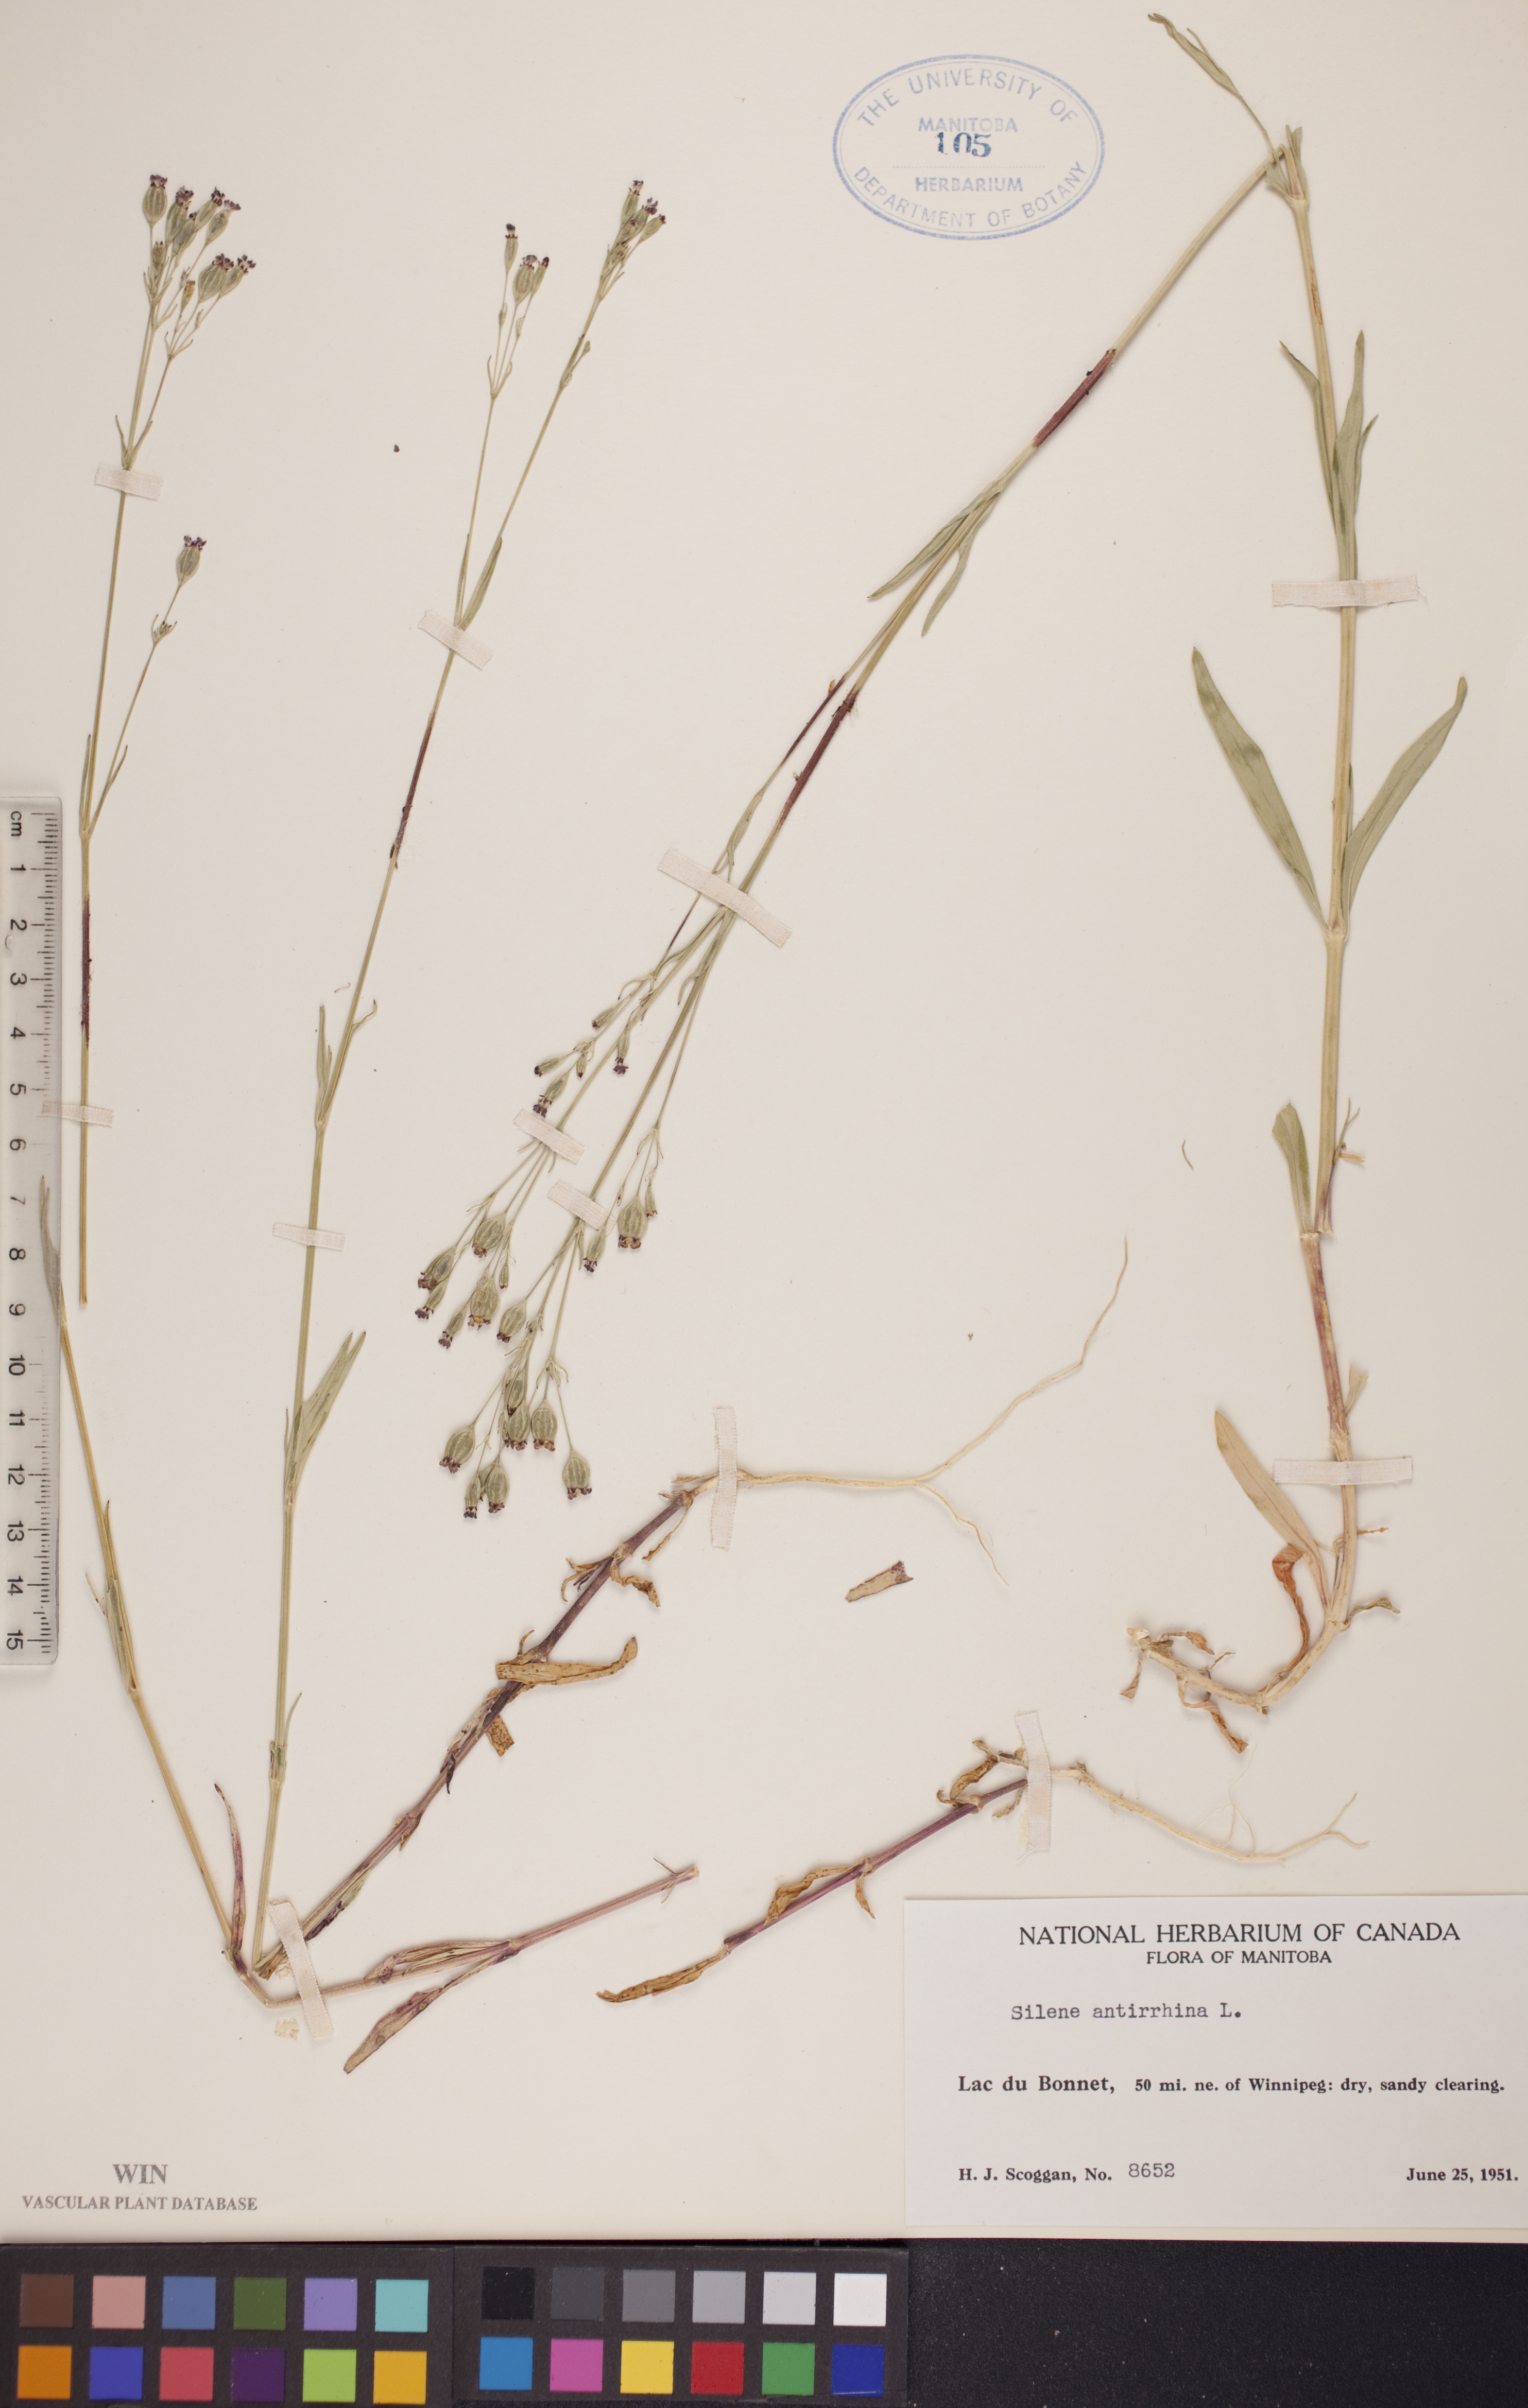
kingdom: Plantae
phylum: Tracheophyta
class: Magnoliopsida
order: Caryophyllales
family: Caryophyllaceae
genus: Silene
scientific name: Silene antirrhina
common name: Sleepy catchfly
